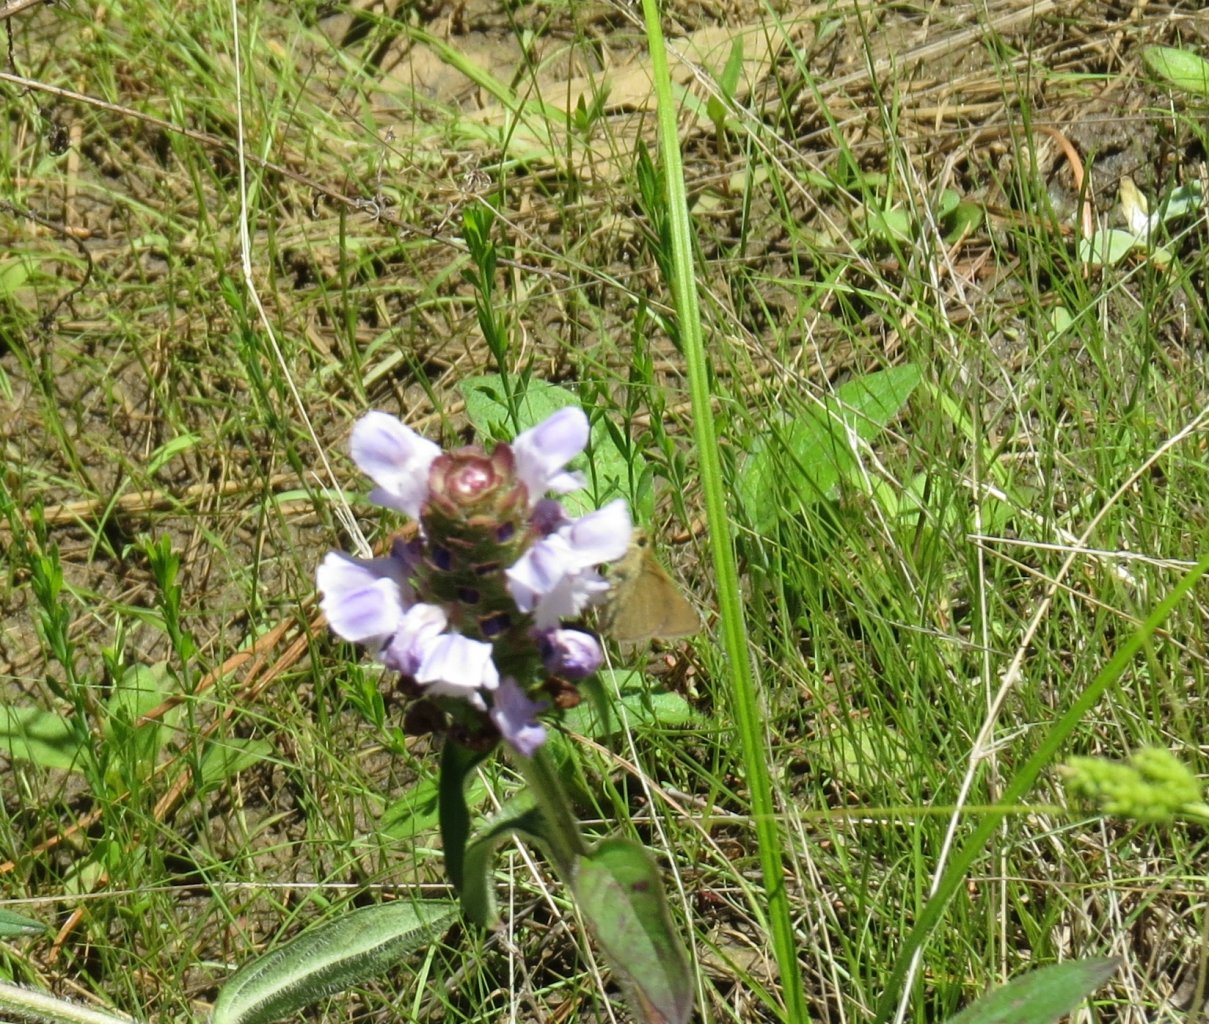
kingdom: Animalia
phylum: Arthropoda
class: Insecta
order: Lepidoptera
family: Hesperiidae
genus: Nastra
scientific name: Nastra lherminier
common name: Swarthy Skipper
